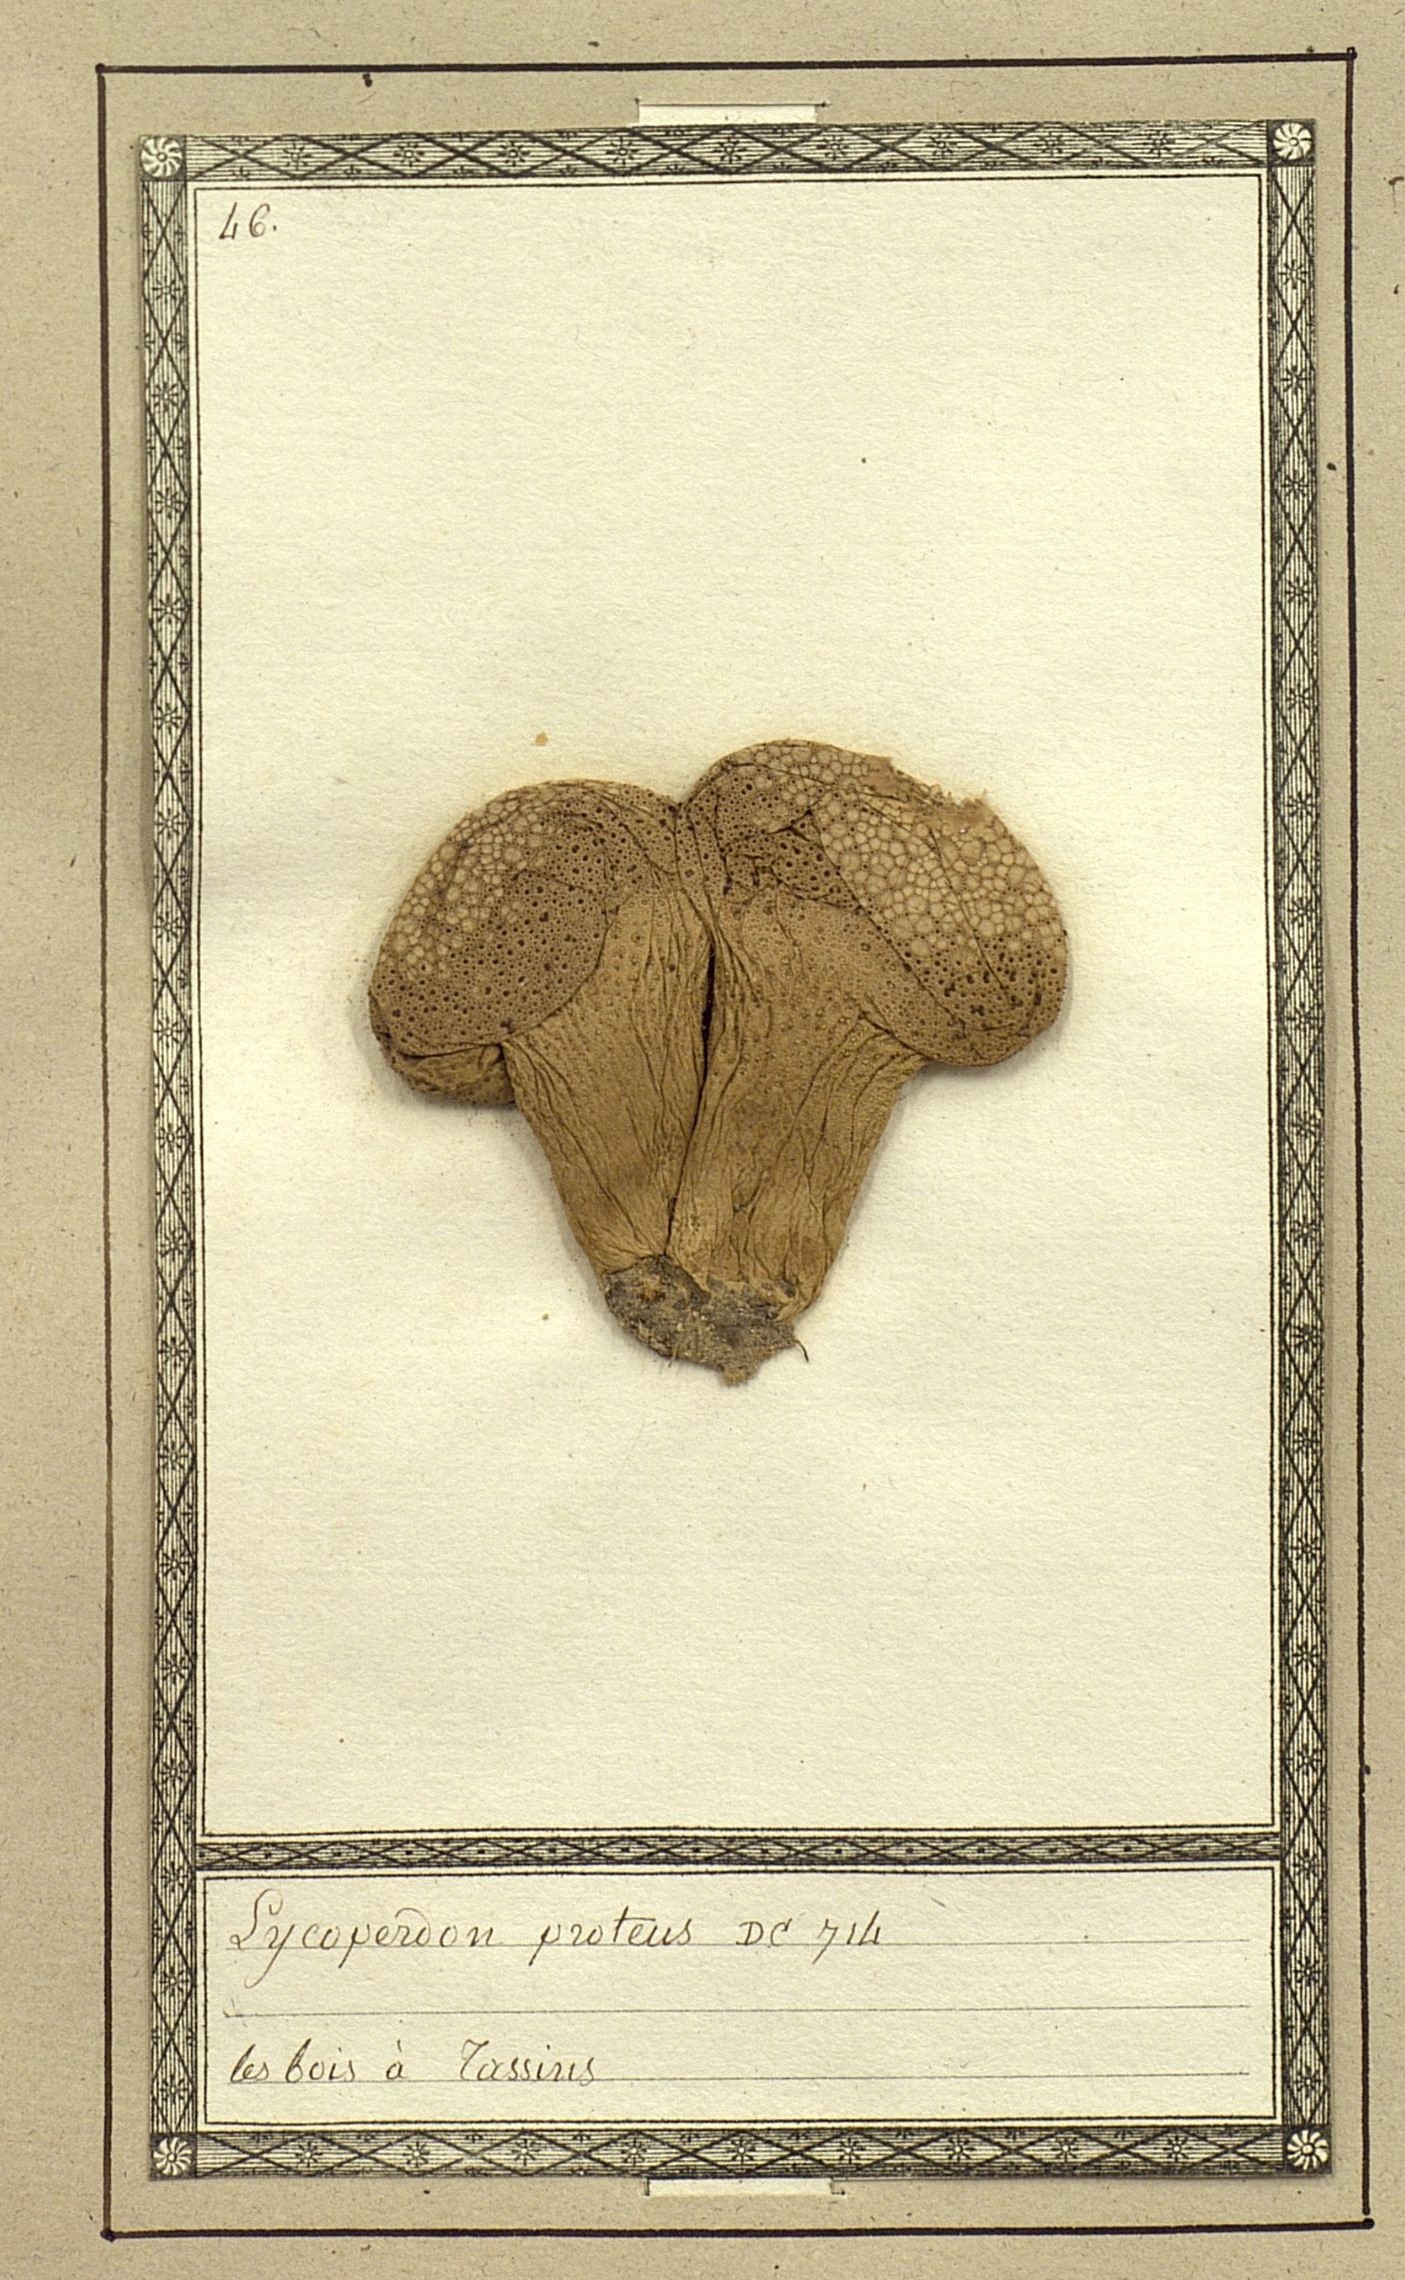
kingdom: Fungi
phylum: Basidiomycota
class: Agaricomycetes
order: Agaricales
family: Agaricaceae
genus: Lycoperdon
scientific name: Lycoperdon proteus
